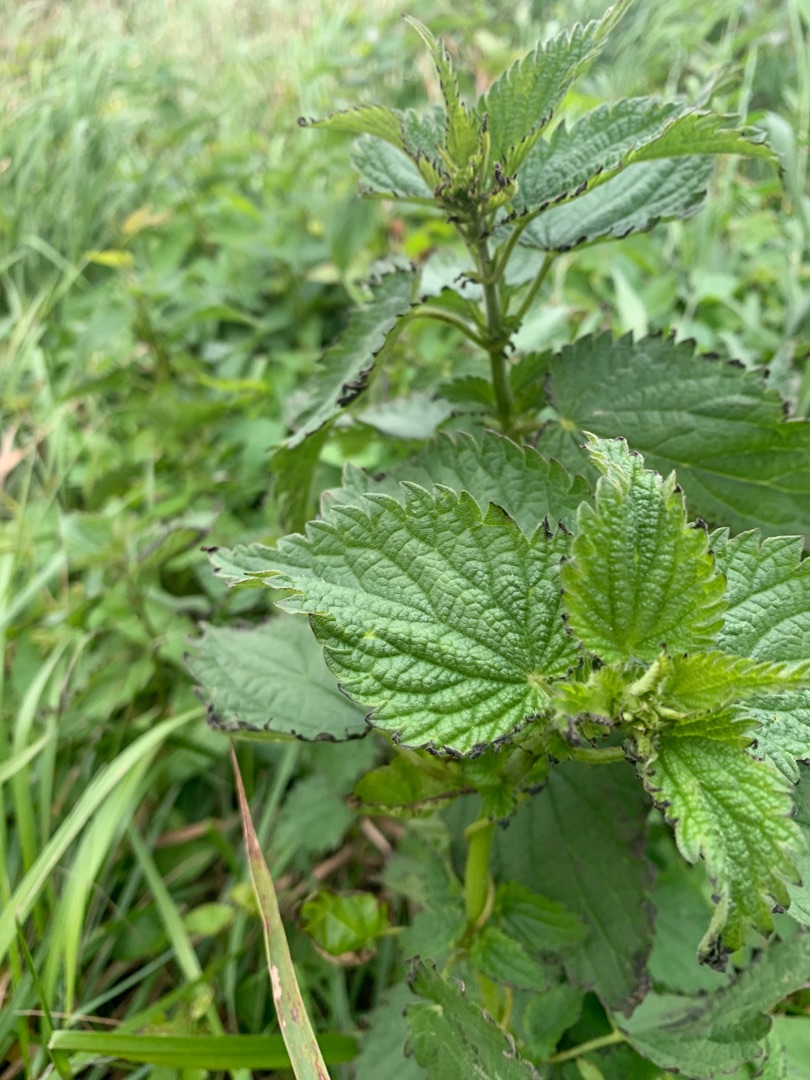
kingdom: Plantae
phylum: Tracheophyta
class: Magnoliopsida
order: Rosales
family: Urticaceae
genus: Urtica
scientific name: Urtica dioica
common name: Stor nælde
